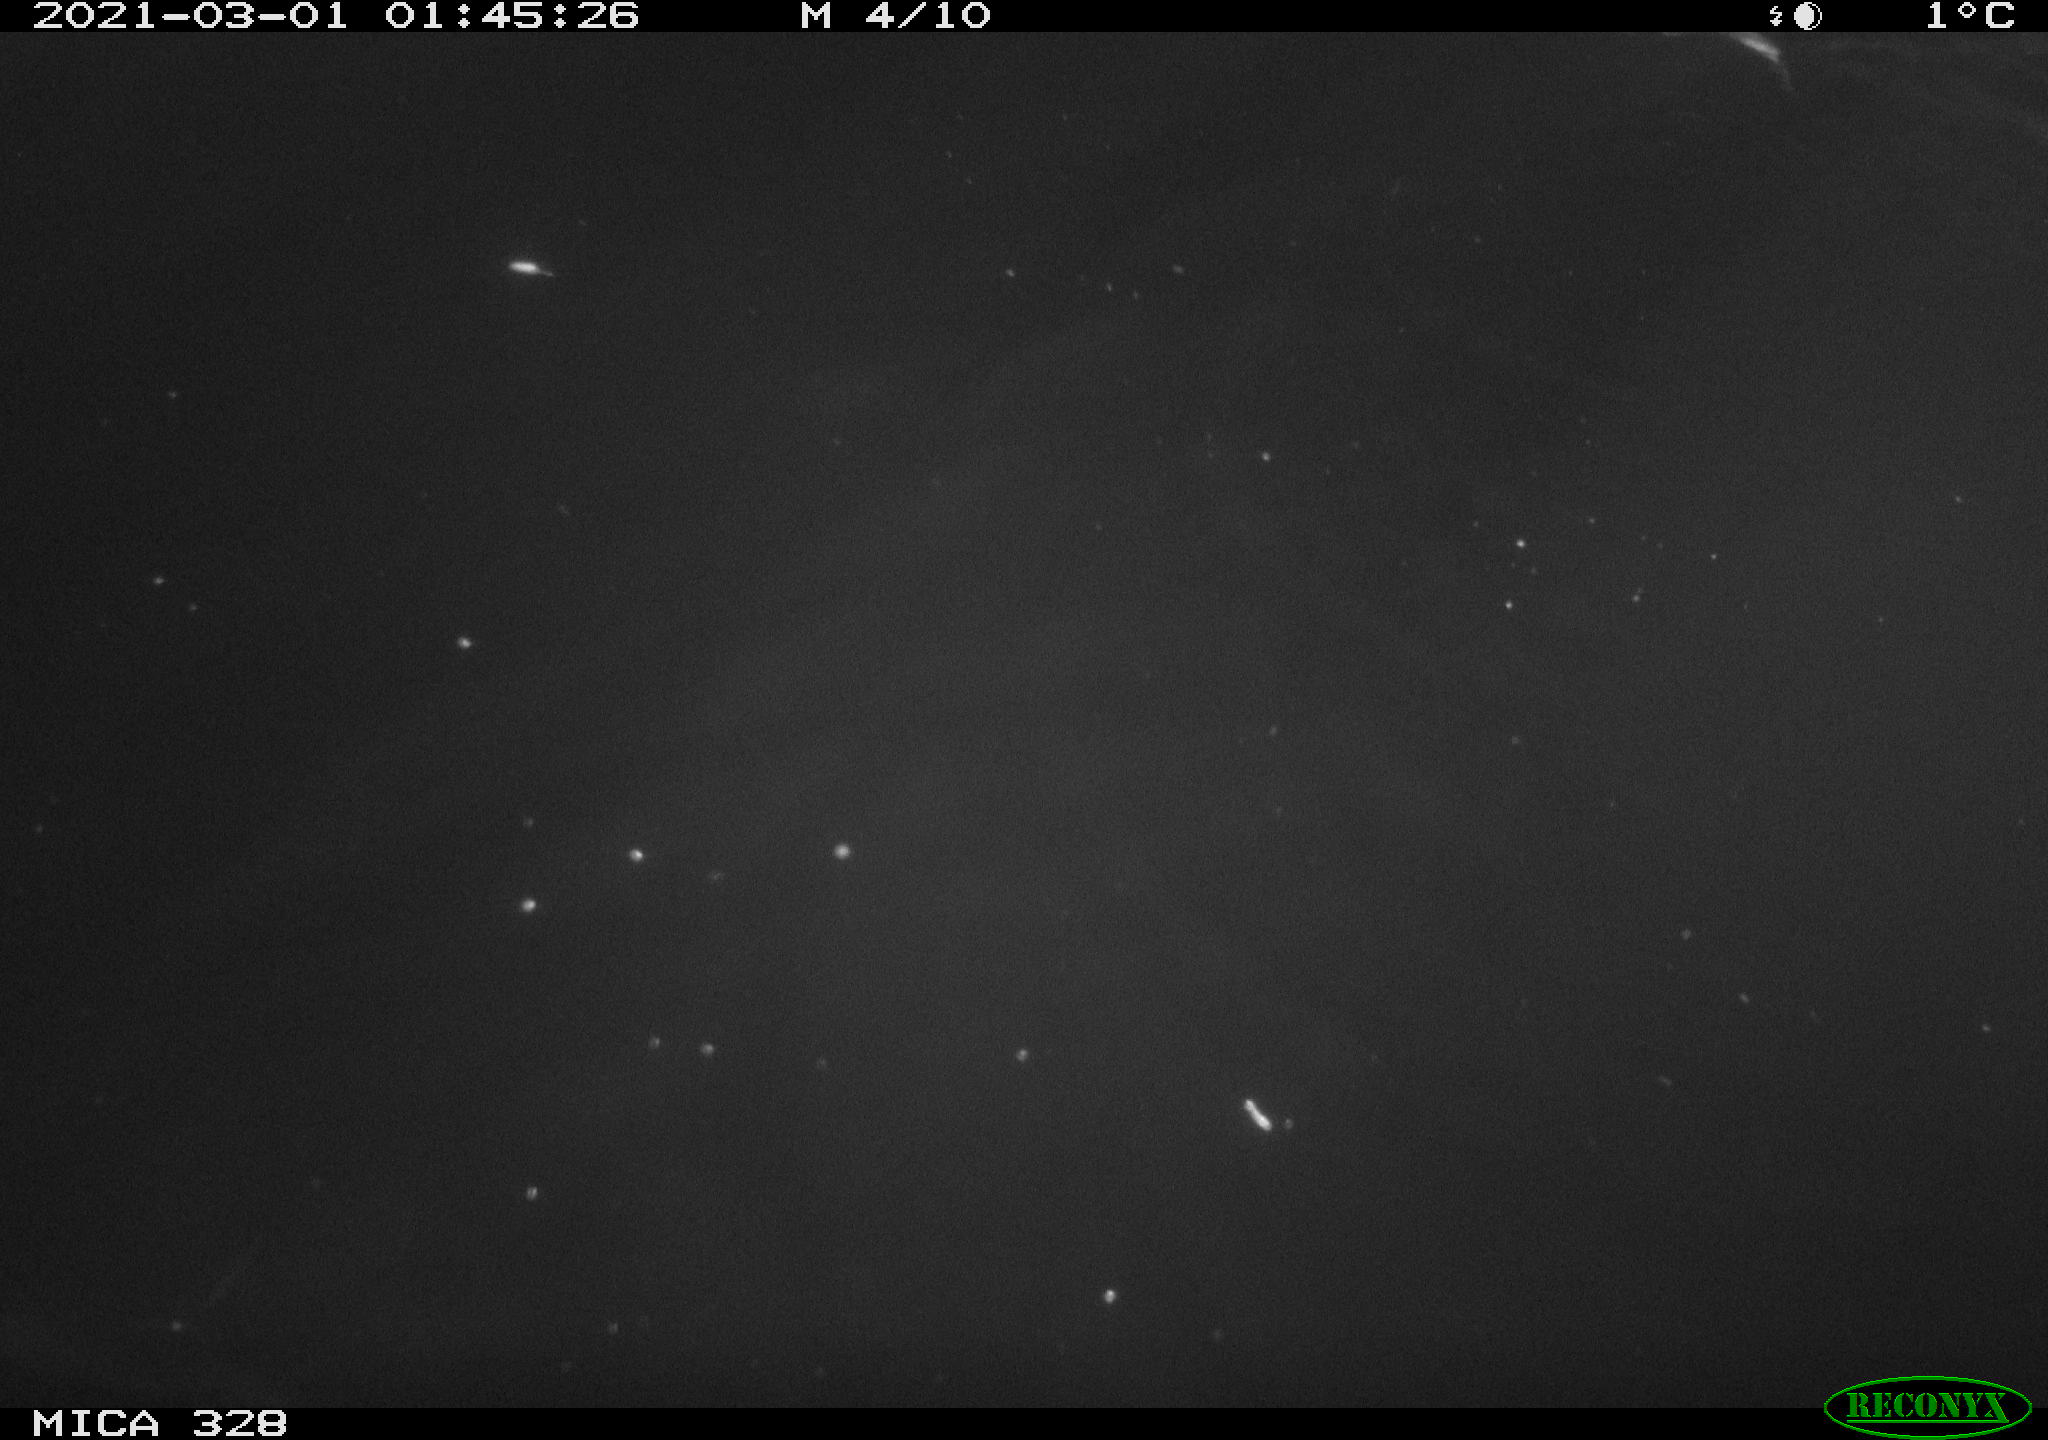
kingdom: Animalia
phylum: Chordata
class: Mammalia
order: Rodentia
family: Cricetidae
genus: Ondatra
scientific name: Ondatra zibethicus
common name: Muskrat
